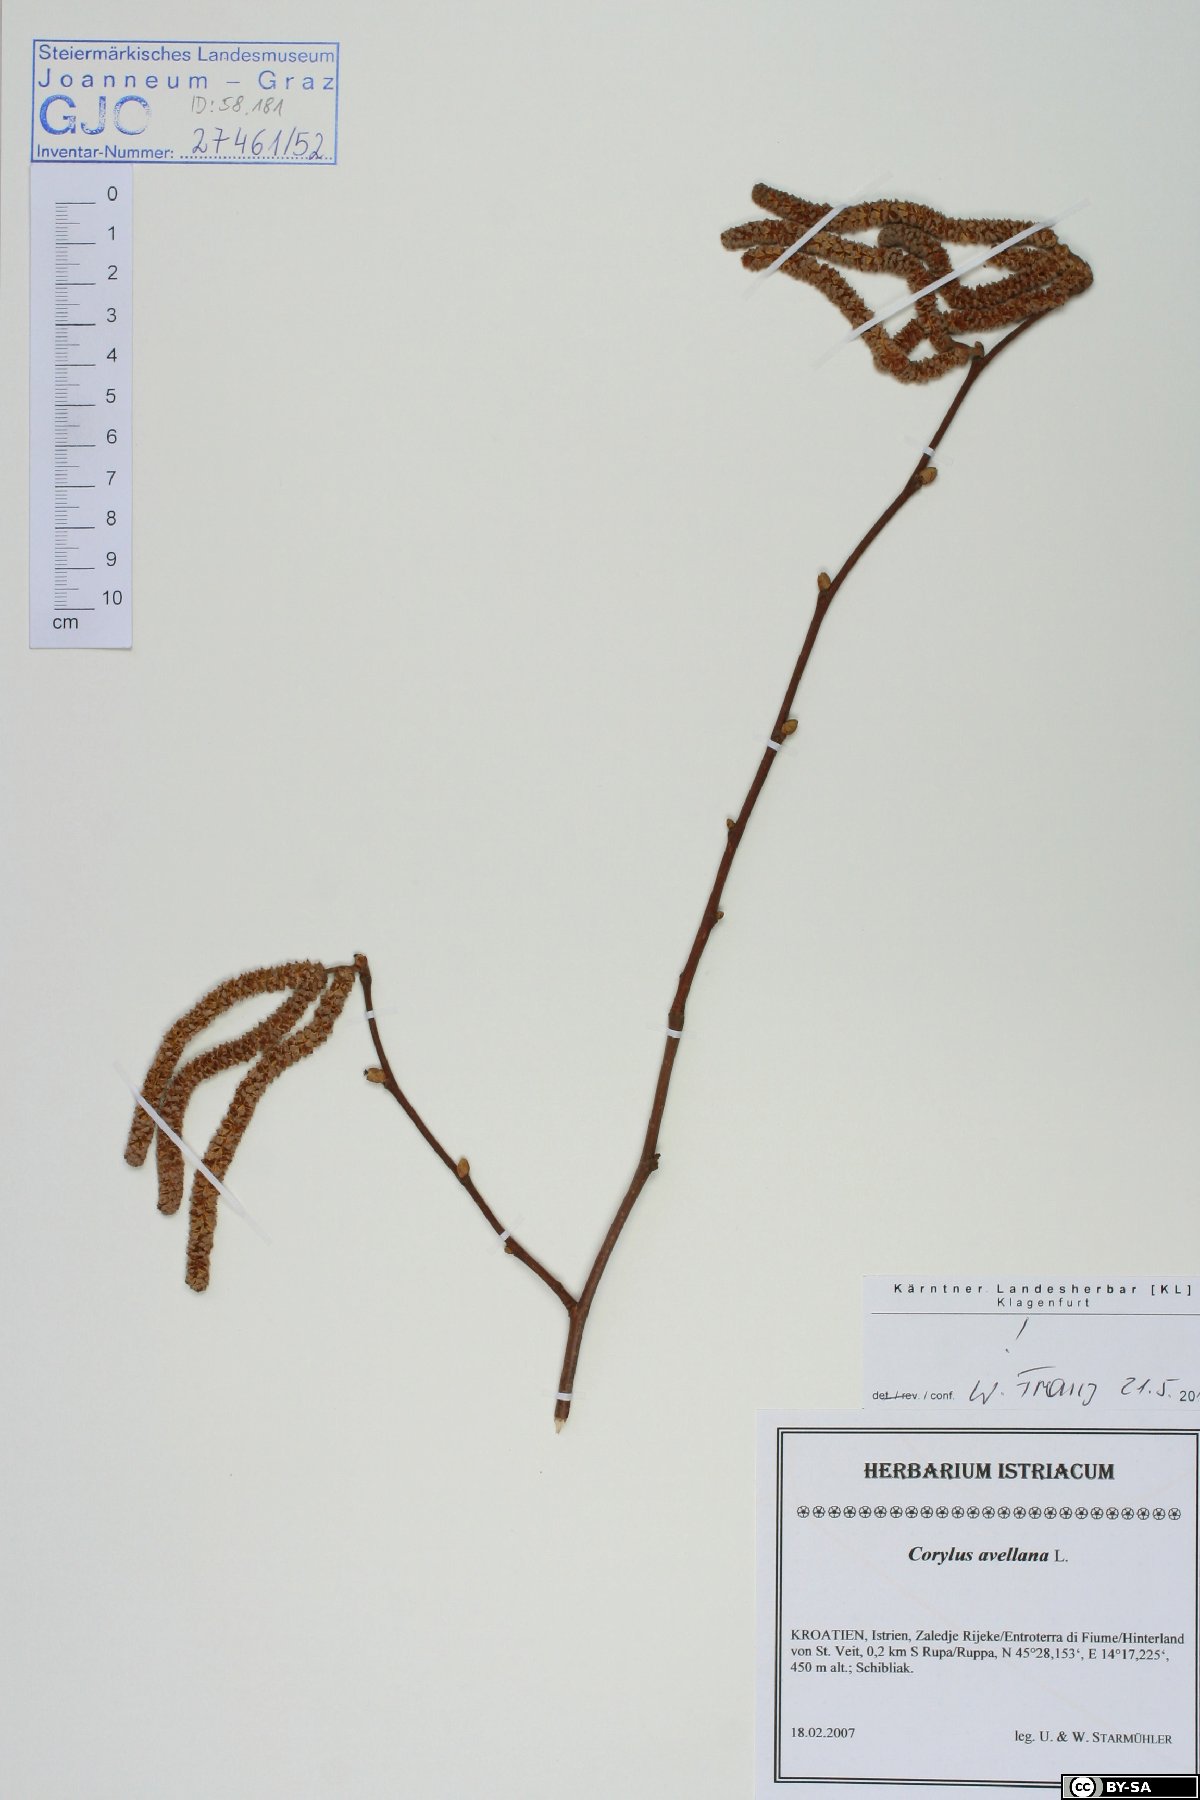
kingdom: Plantae
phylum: Tracheophyta
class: Magnoliopsida
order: Fagales
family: Betulaceae
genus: Corylus
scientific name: Corylus avellana
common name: European hazel
